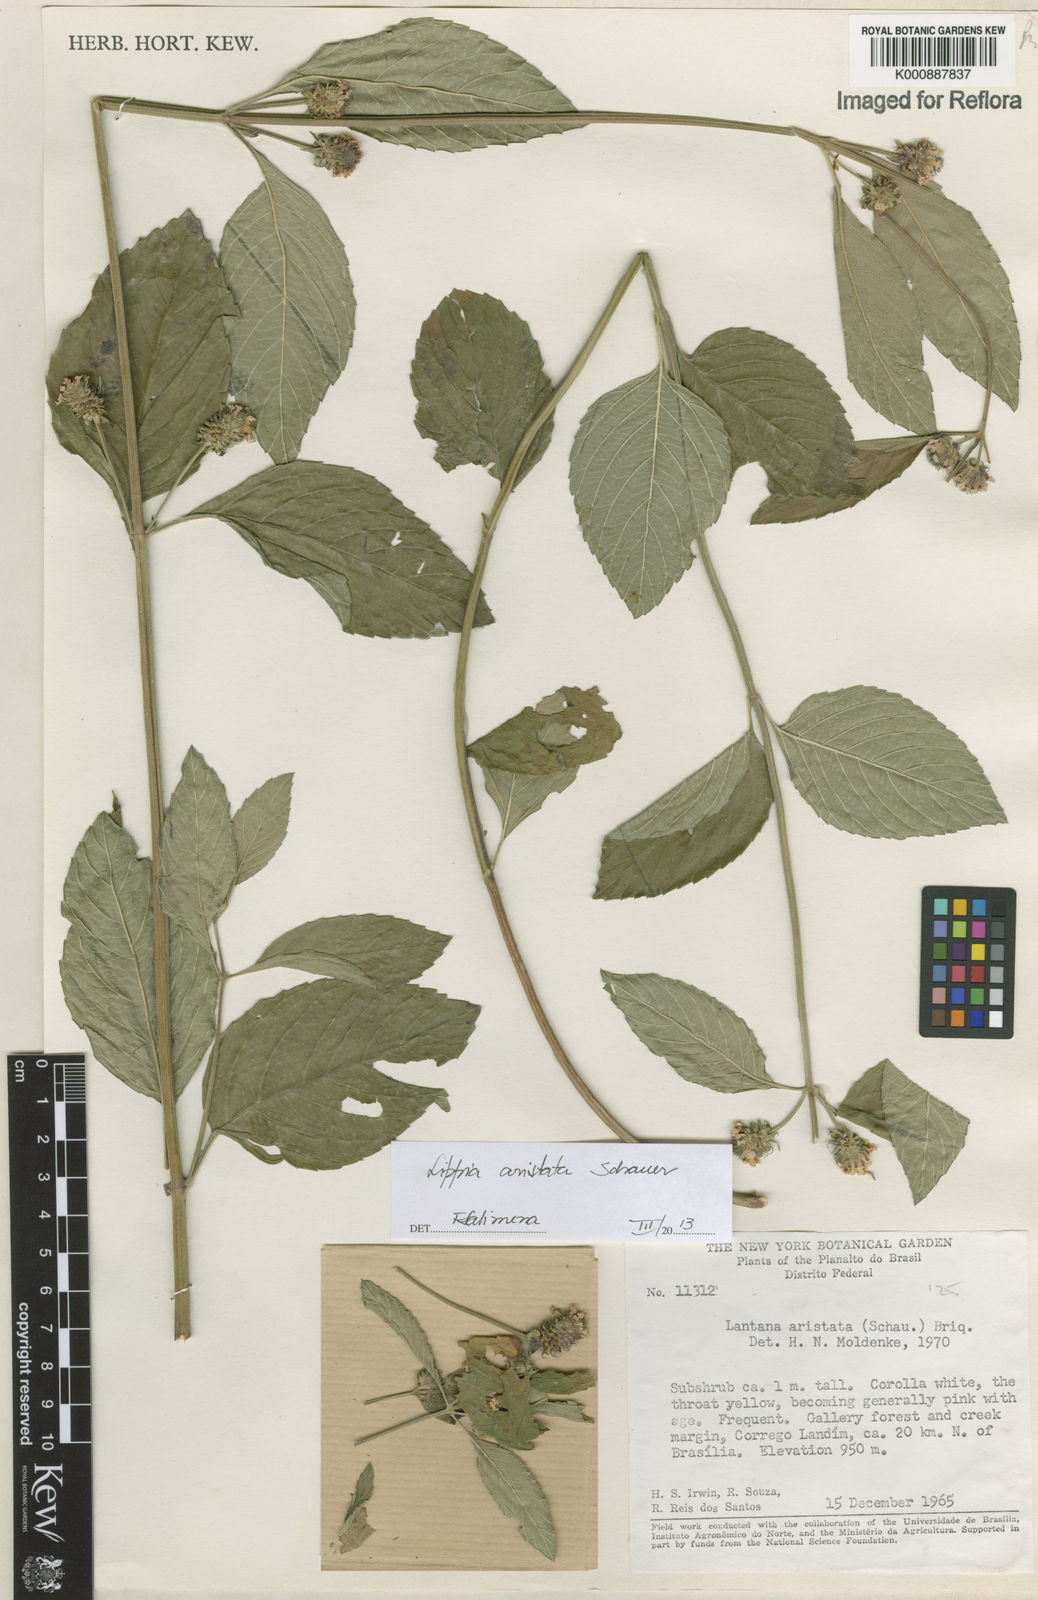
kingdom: Plantae
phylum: Tracheophyta
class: Magnoliopsida
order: Lamiales
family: Verbenaceae
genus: Lippia
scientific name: Lippia aristata
